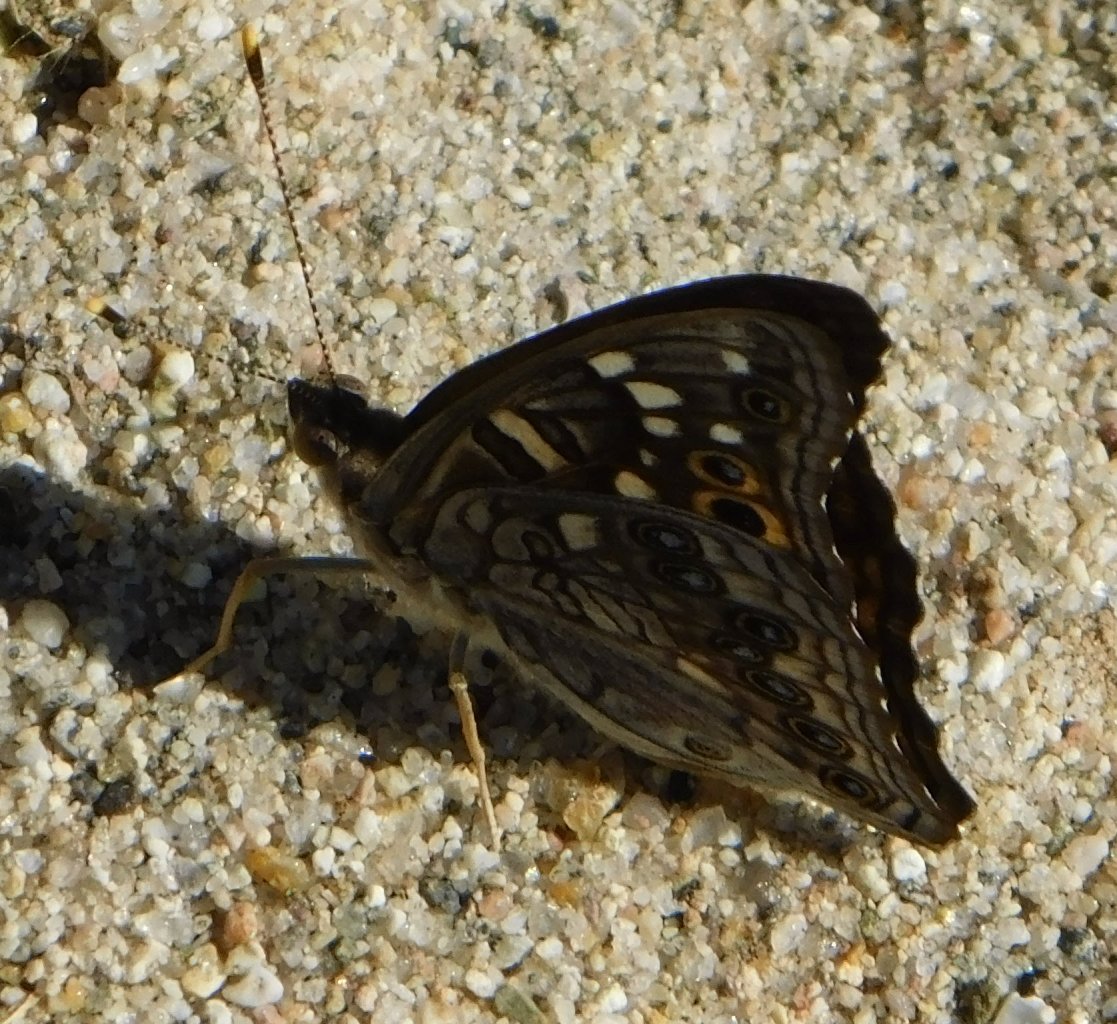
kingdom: Animalia
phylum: Arthropoda
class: Insecta
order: Lepidoptera
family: Nymphalidae
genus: Asterocampa
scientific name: Asterocampa leilia
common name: Empress Leilia
